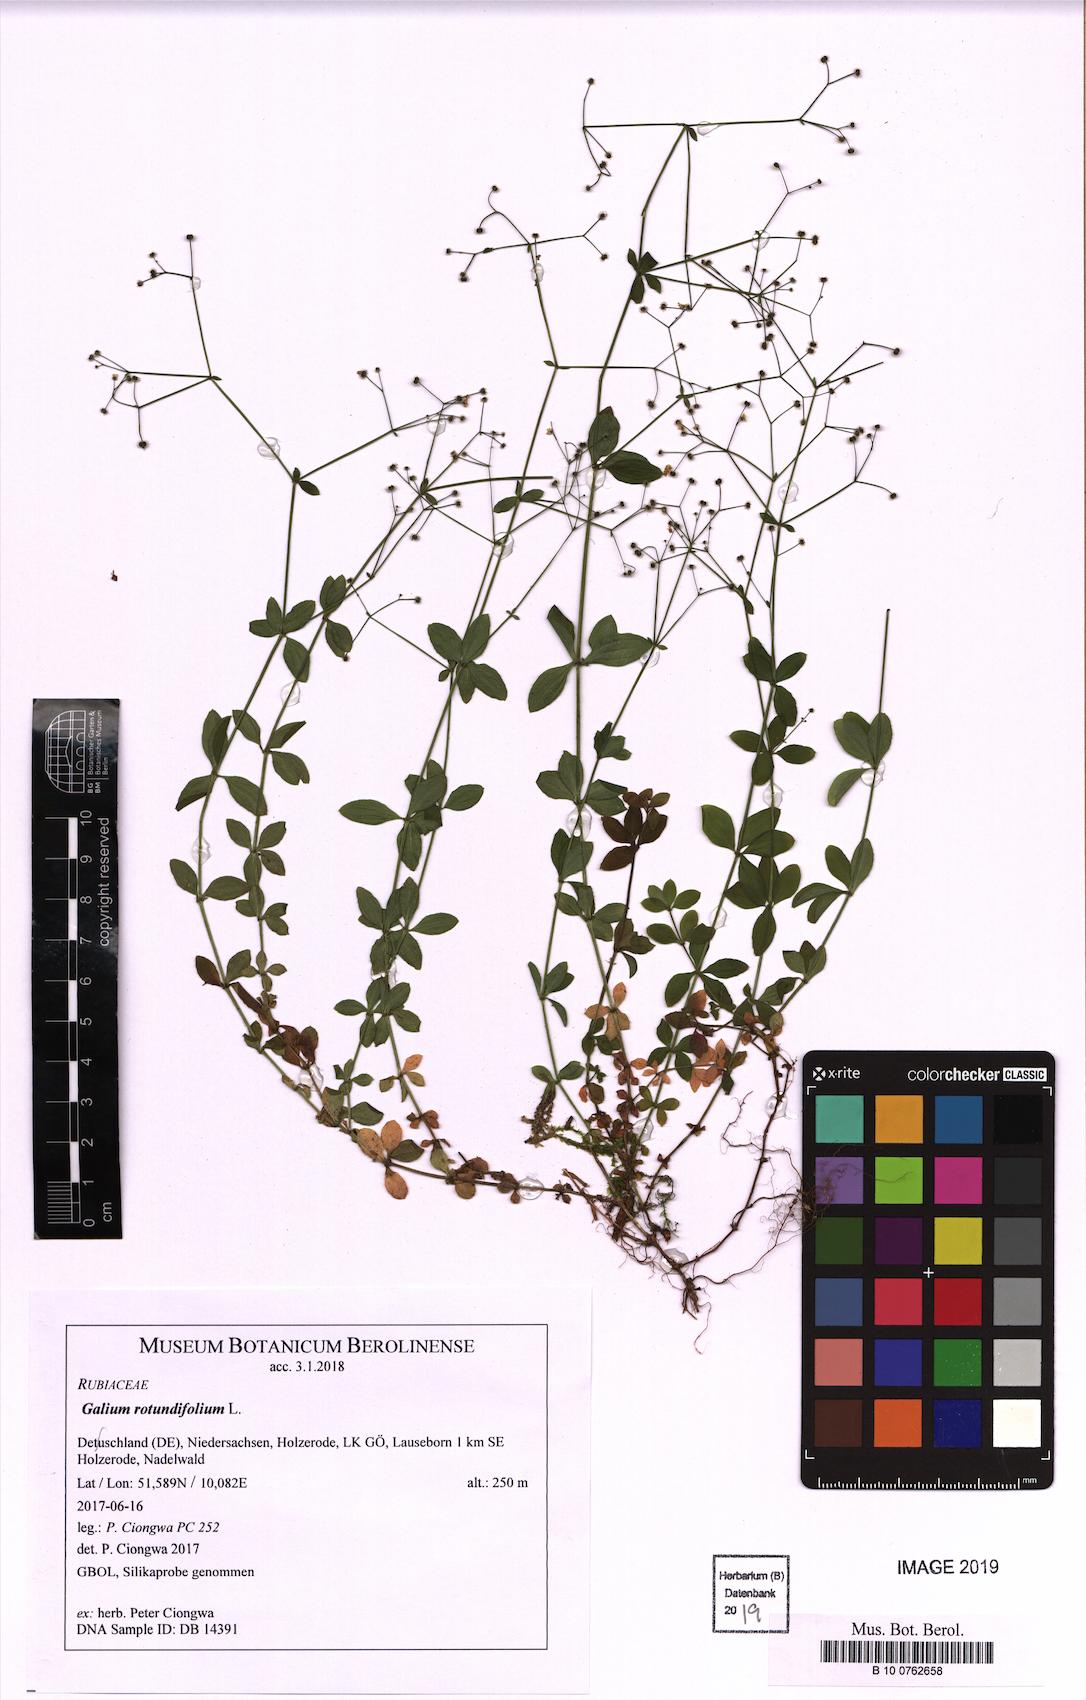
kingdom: Plantae
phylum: Tracheophyta
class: Magnoliopsida
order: Gentianales
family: Rubiaceae
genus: Galium
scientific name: Galium rotundifolium
